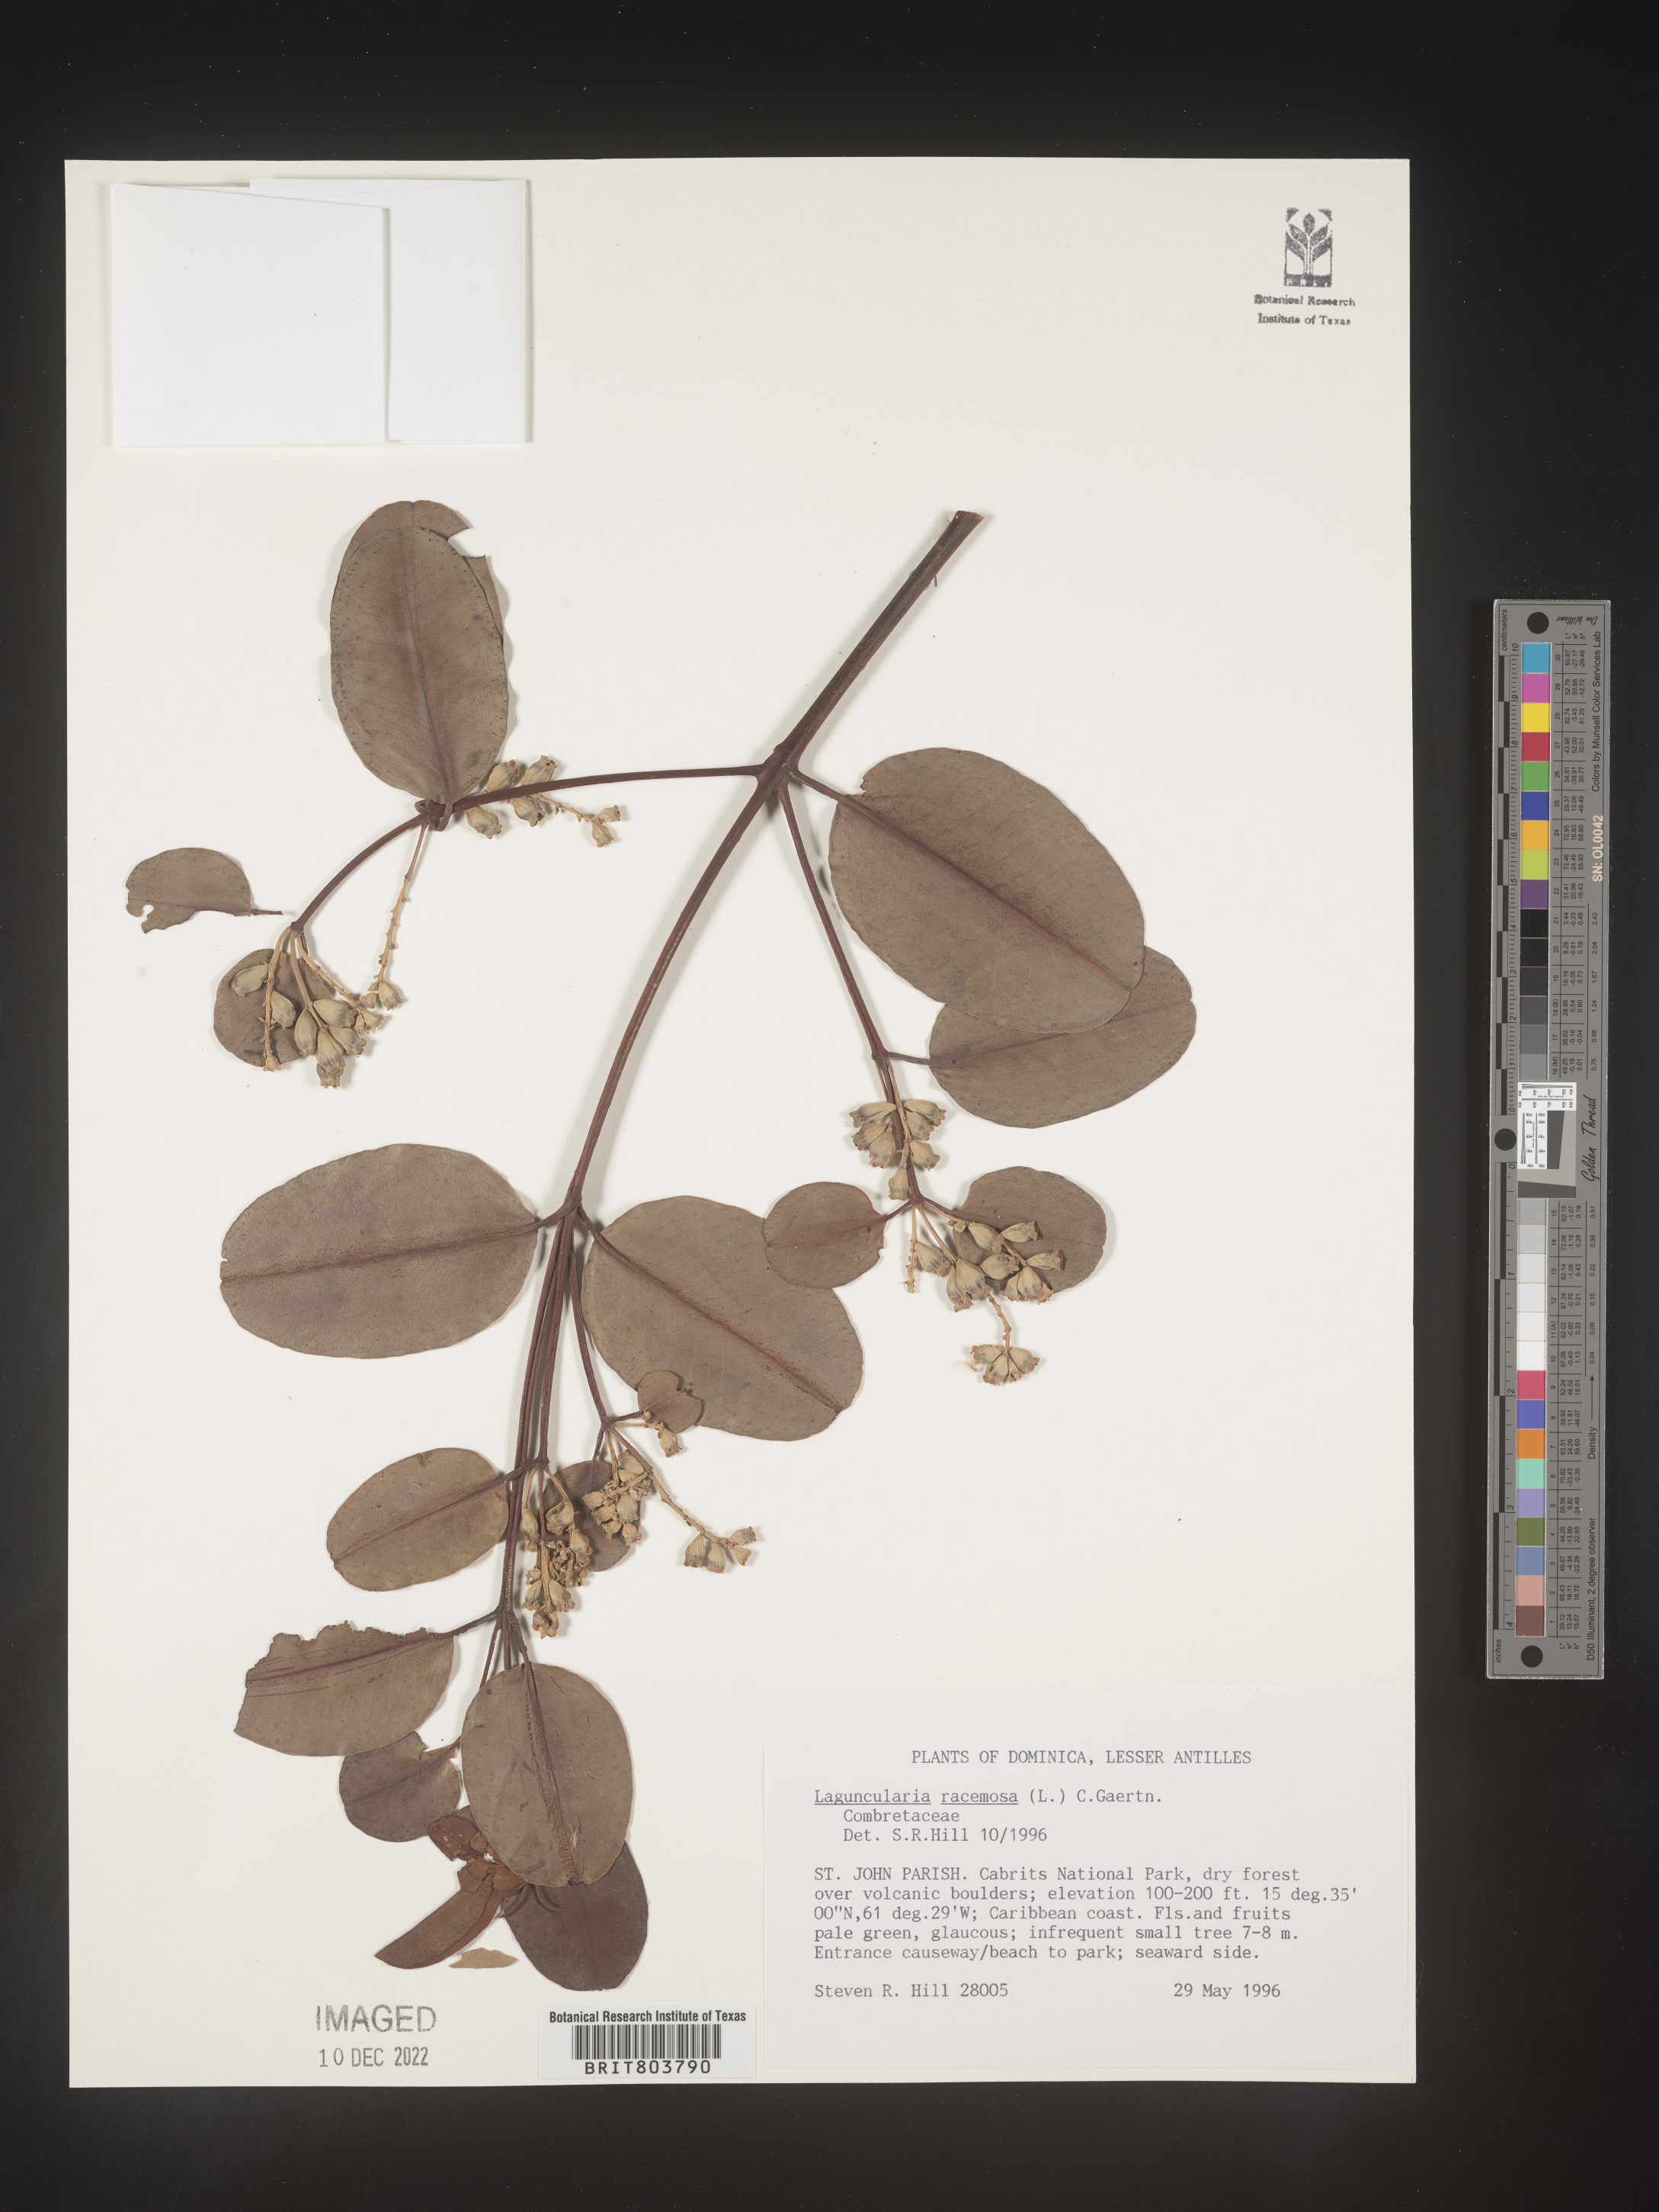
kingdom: Plantae
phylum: Tracheophyta
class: Magnoliopsida
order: Myrtales
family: Combretaceae
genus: Laguncularia
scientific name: Laguncularia
